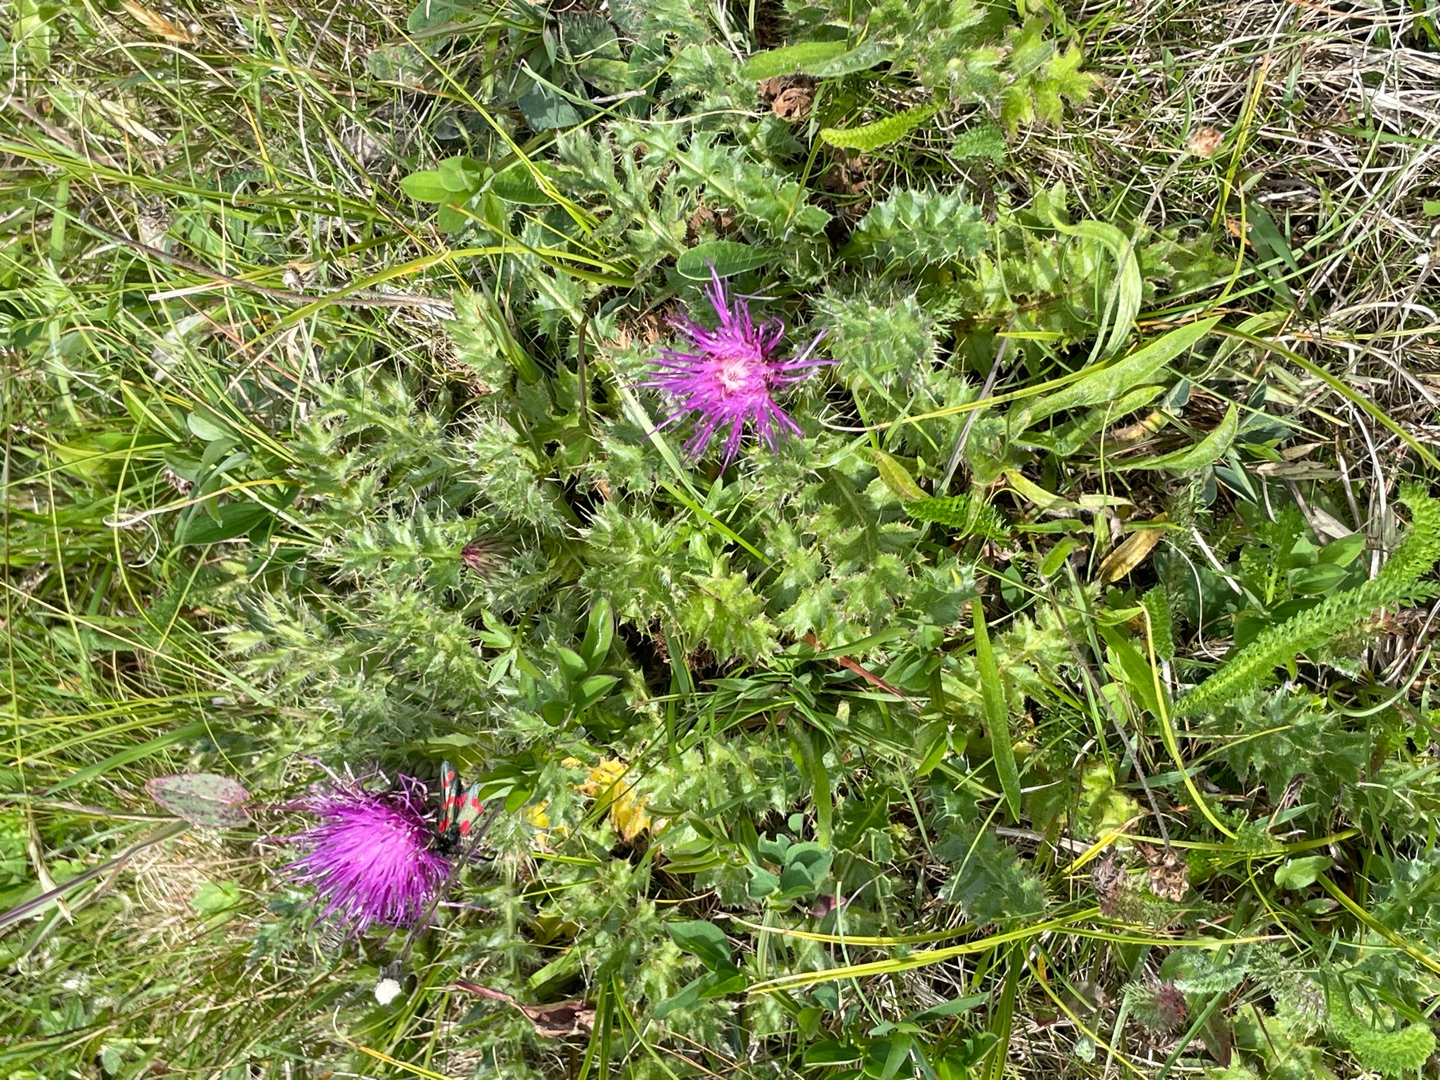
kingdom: Plantae
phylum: Tracheophyta
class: Magnoliopsida
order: Asterales
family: Asteraceae
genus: Cirsium
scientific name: Cirsium acaule
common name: Lav tidsel
